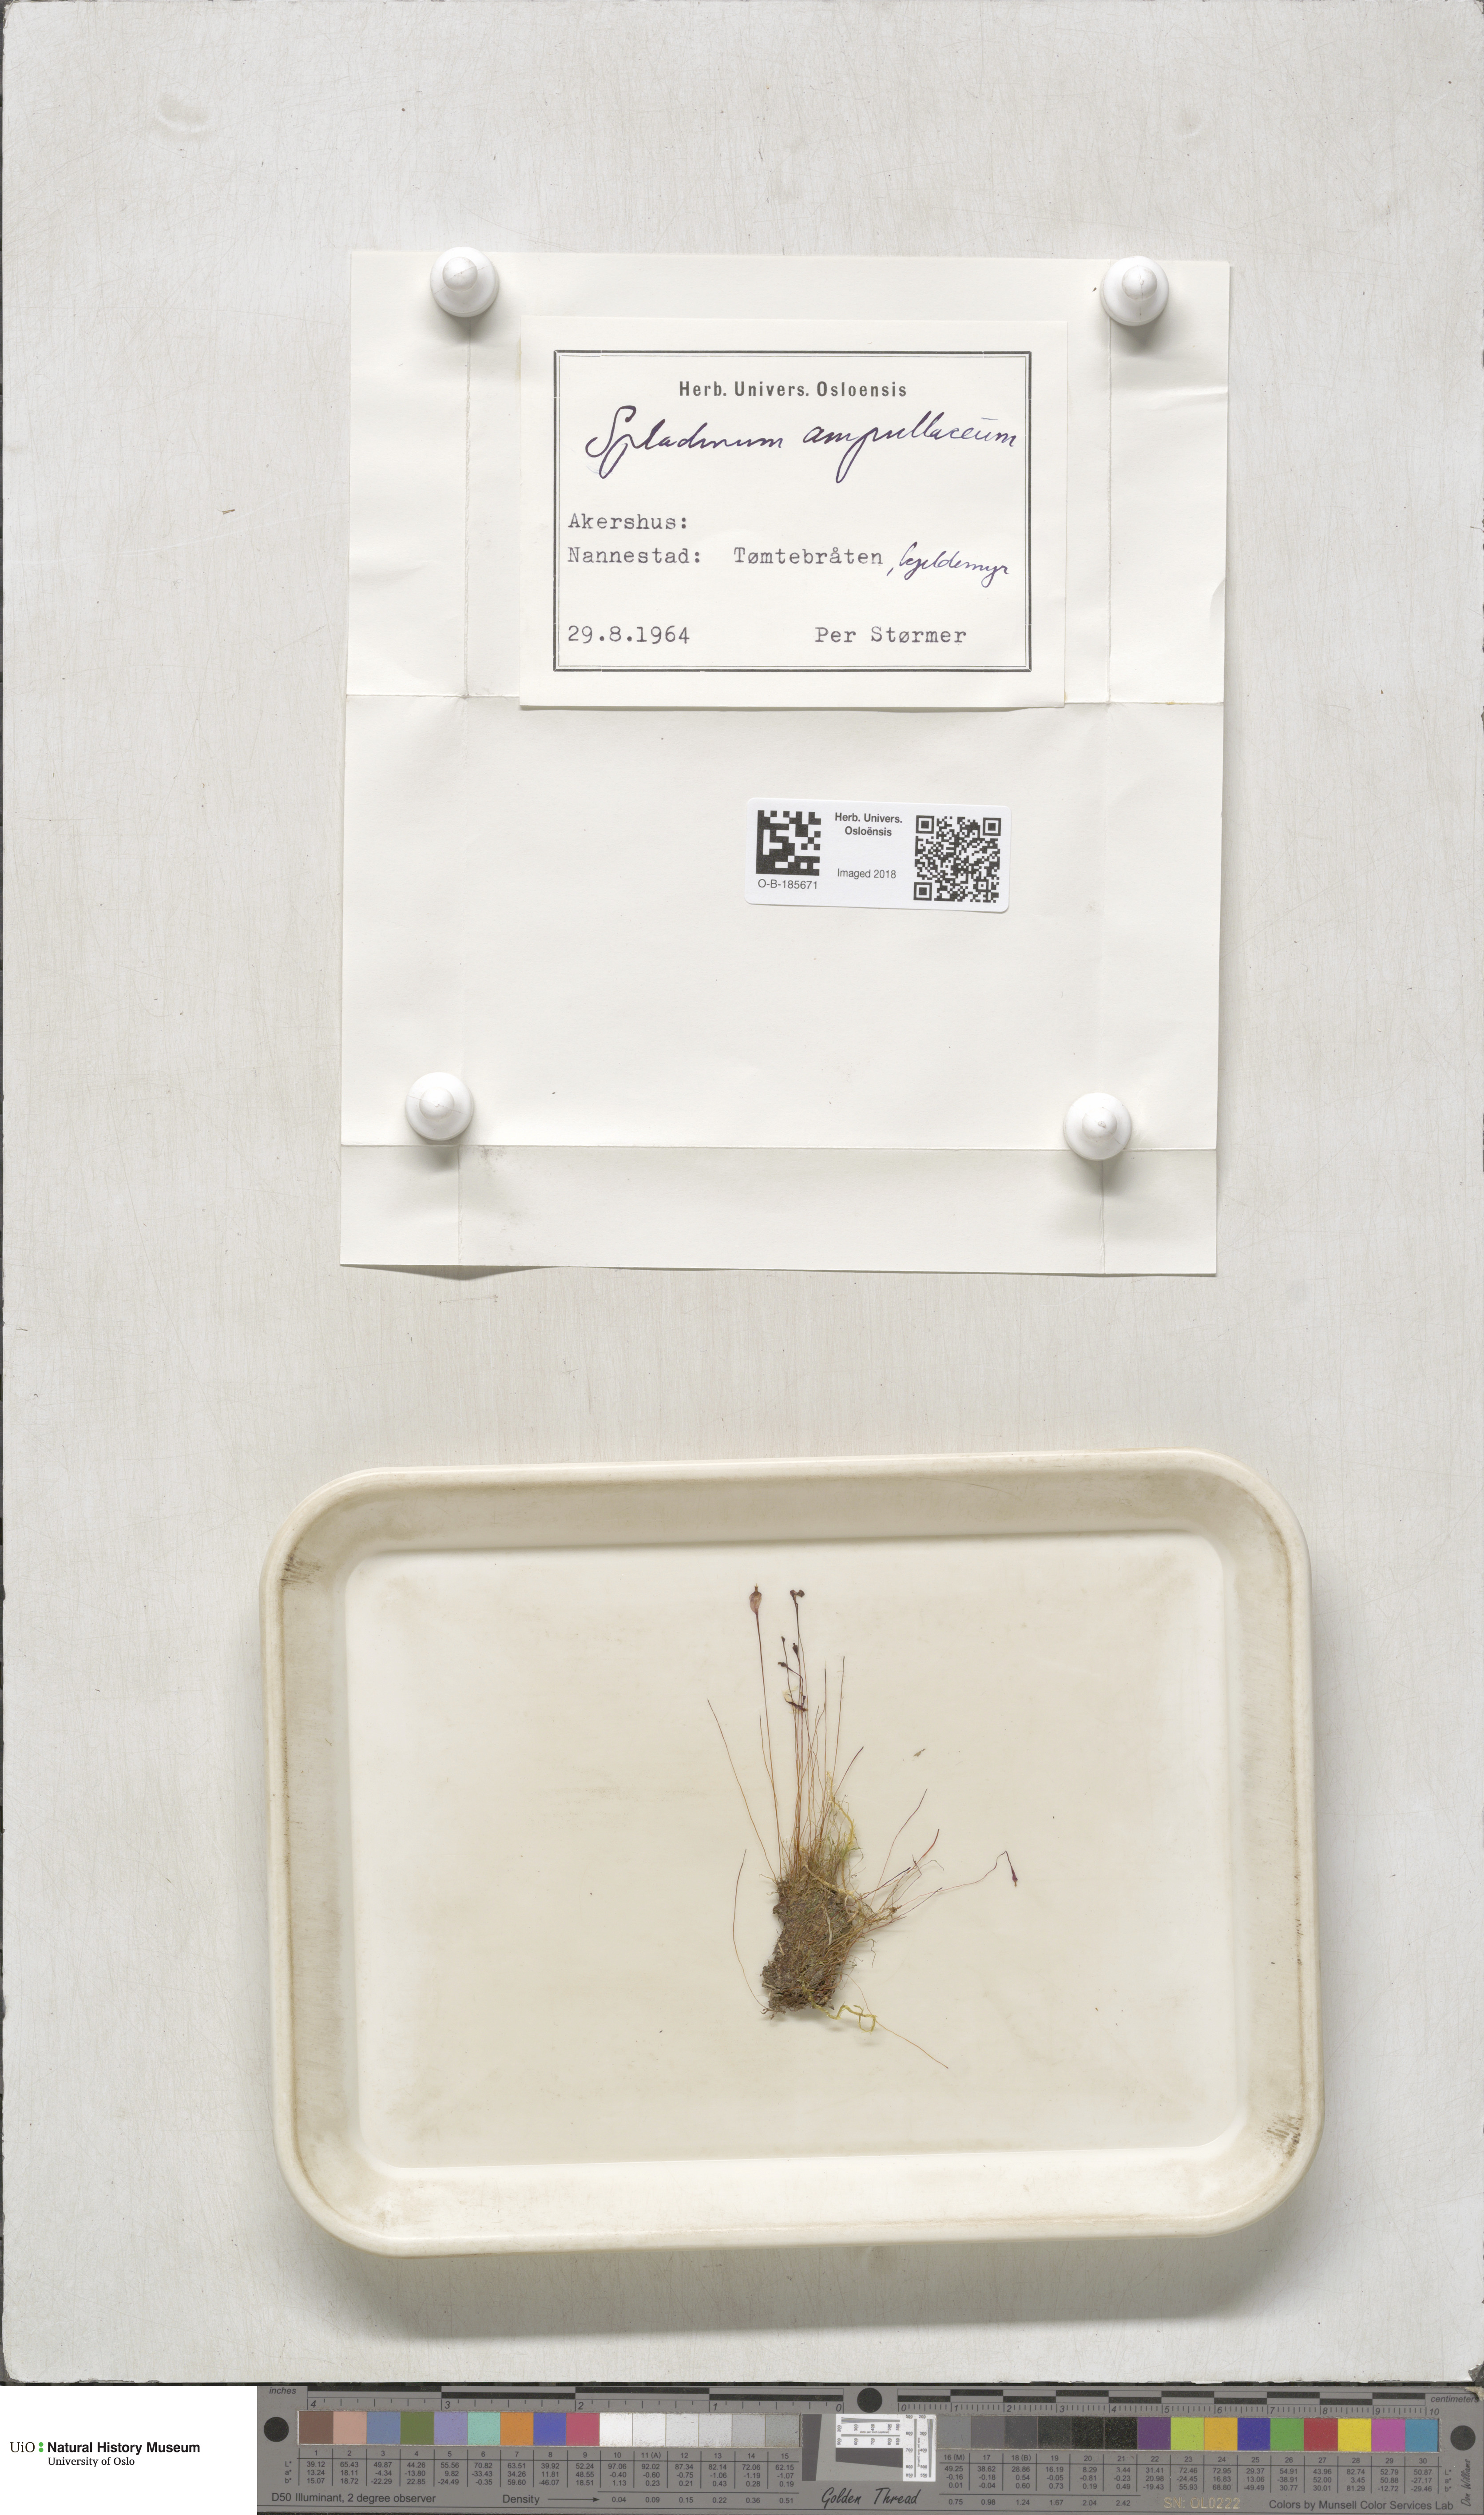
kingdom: Plantae
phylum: Bryophyta
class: Bryopsida
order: Splachnales
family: Splachnaceae
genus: Splachnum
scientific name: Splachnum ampullaceum
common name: Cruet dung moss
